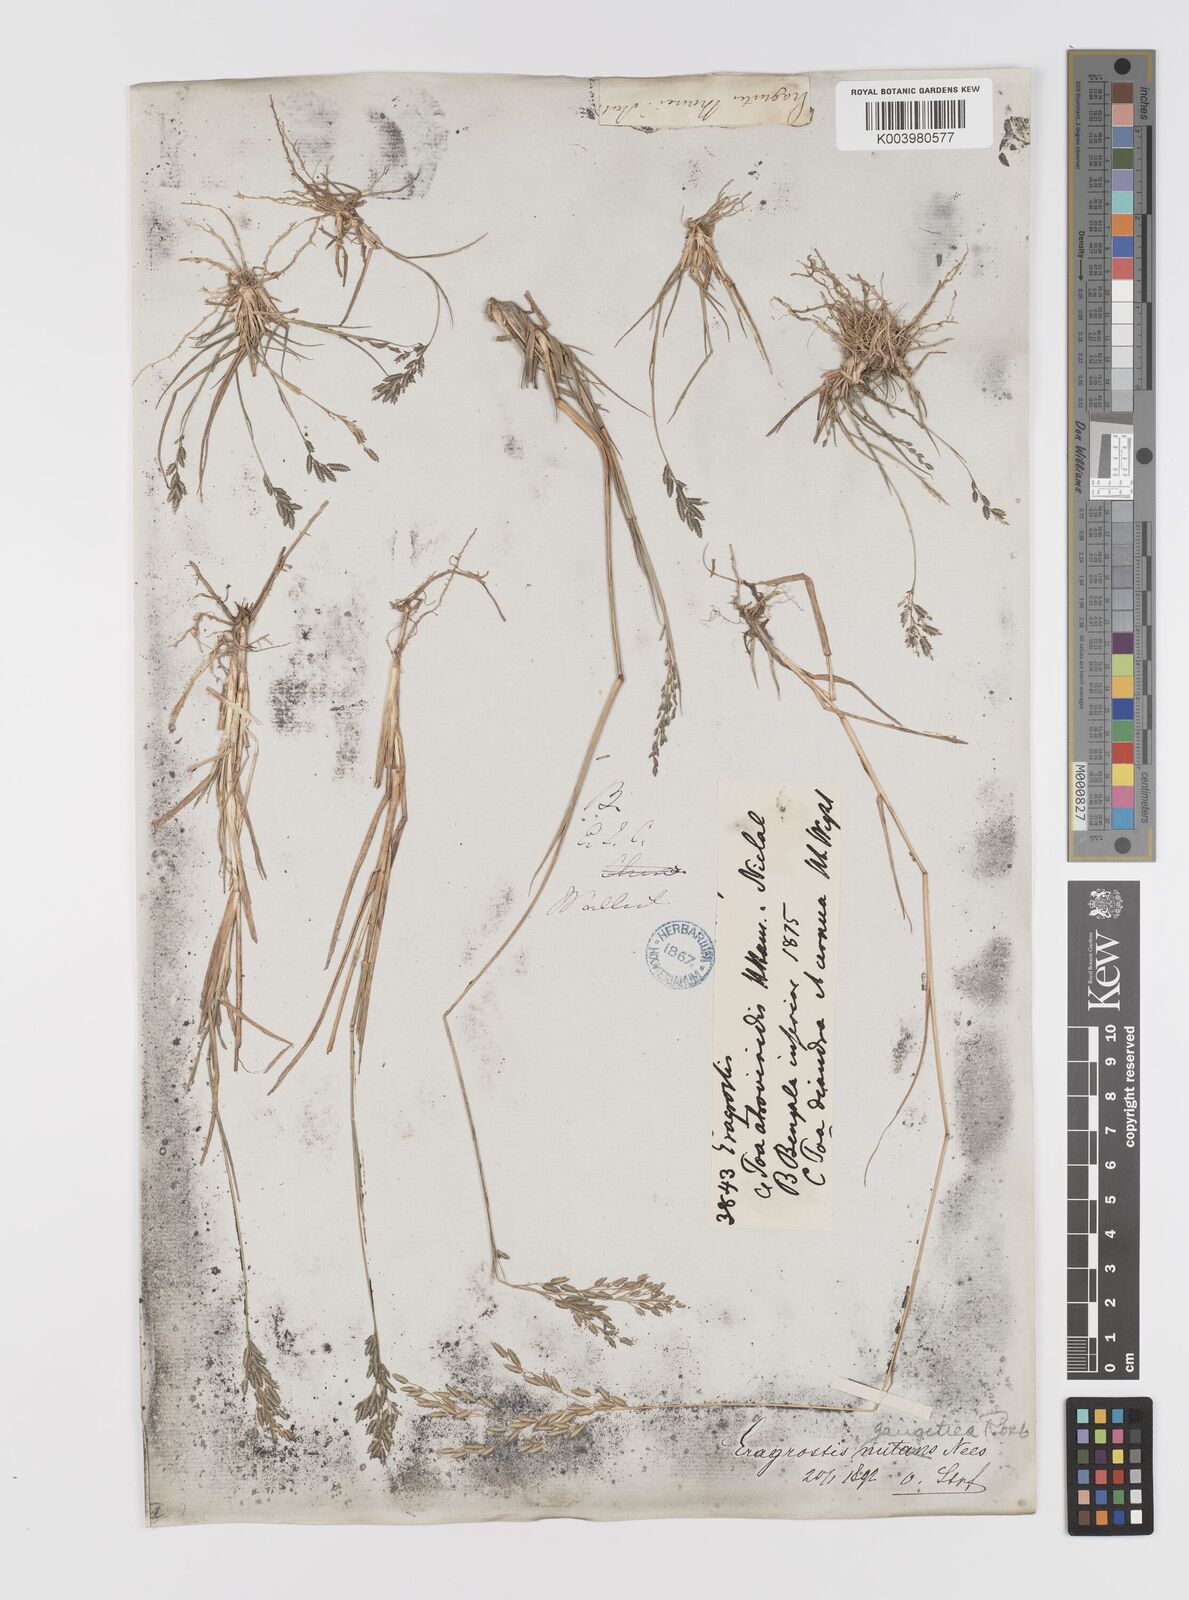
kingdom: Plantae
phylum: Tracheophyta
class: Liliopsida
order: Poales
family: Poaceae
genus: Eragrostis
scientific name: Eragrostis atrovirens
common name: Thalia lovegrass
